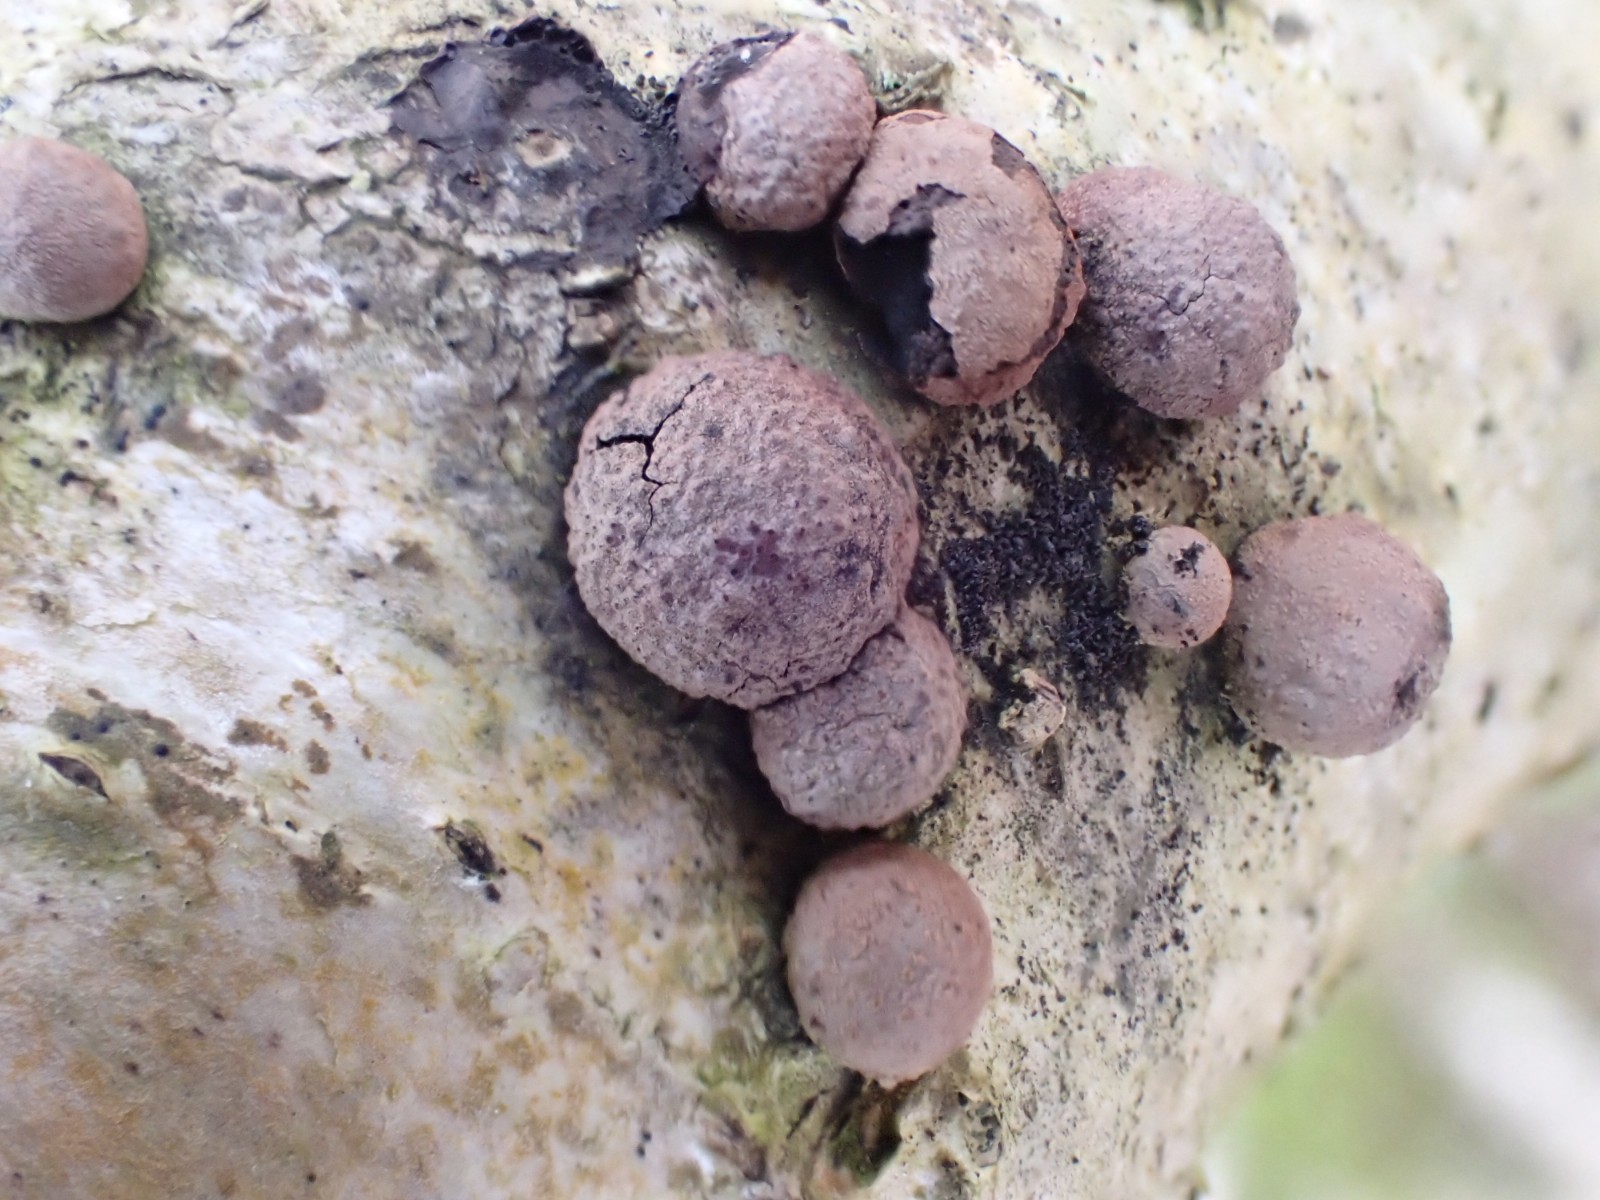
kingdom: Fungi
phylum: Ascomycota
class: Sordariomycetes
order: Xylariales
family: Hypoxylaceae
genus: Hypoxylon
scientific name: Hypoxylon howeanum
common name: halvkugleformet kulbær
